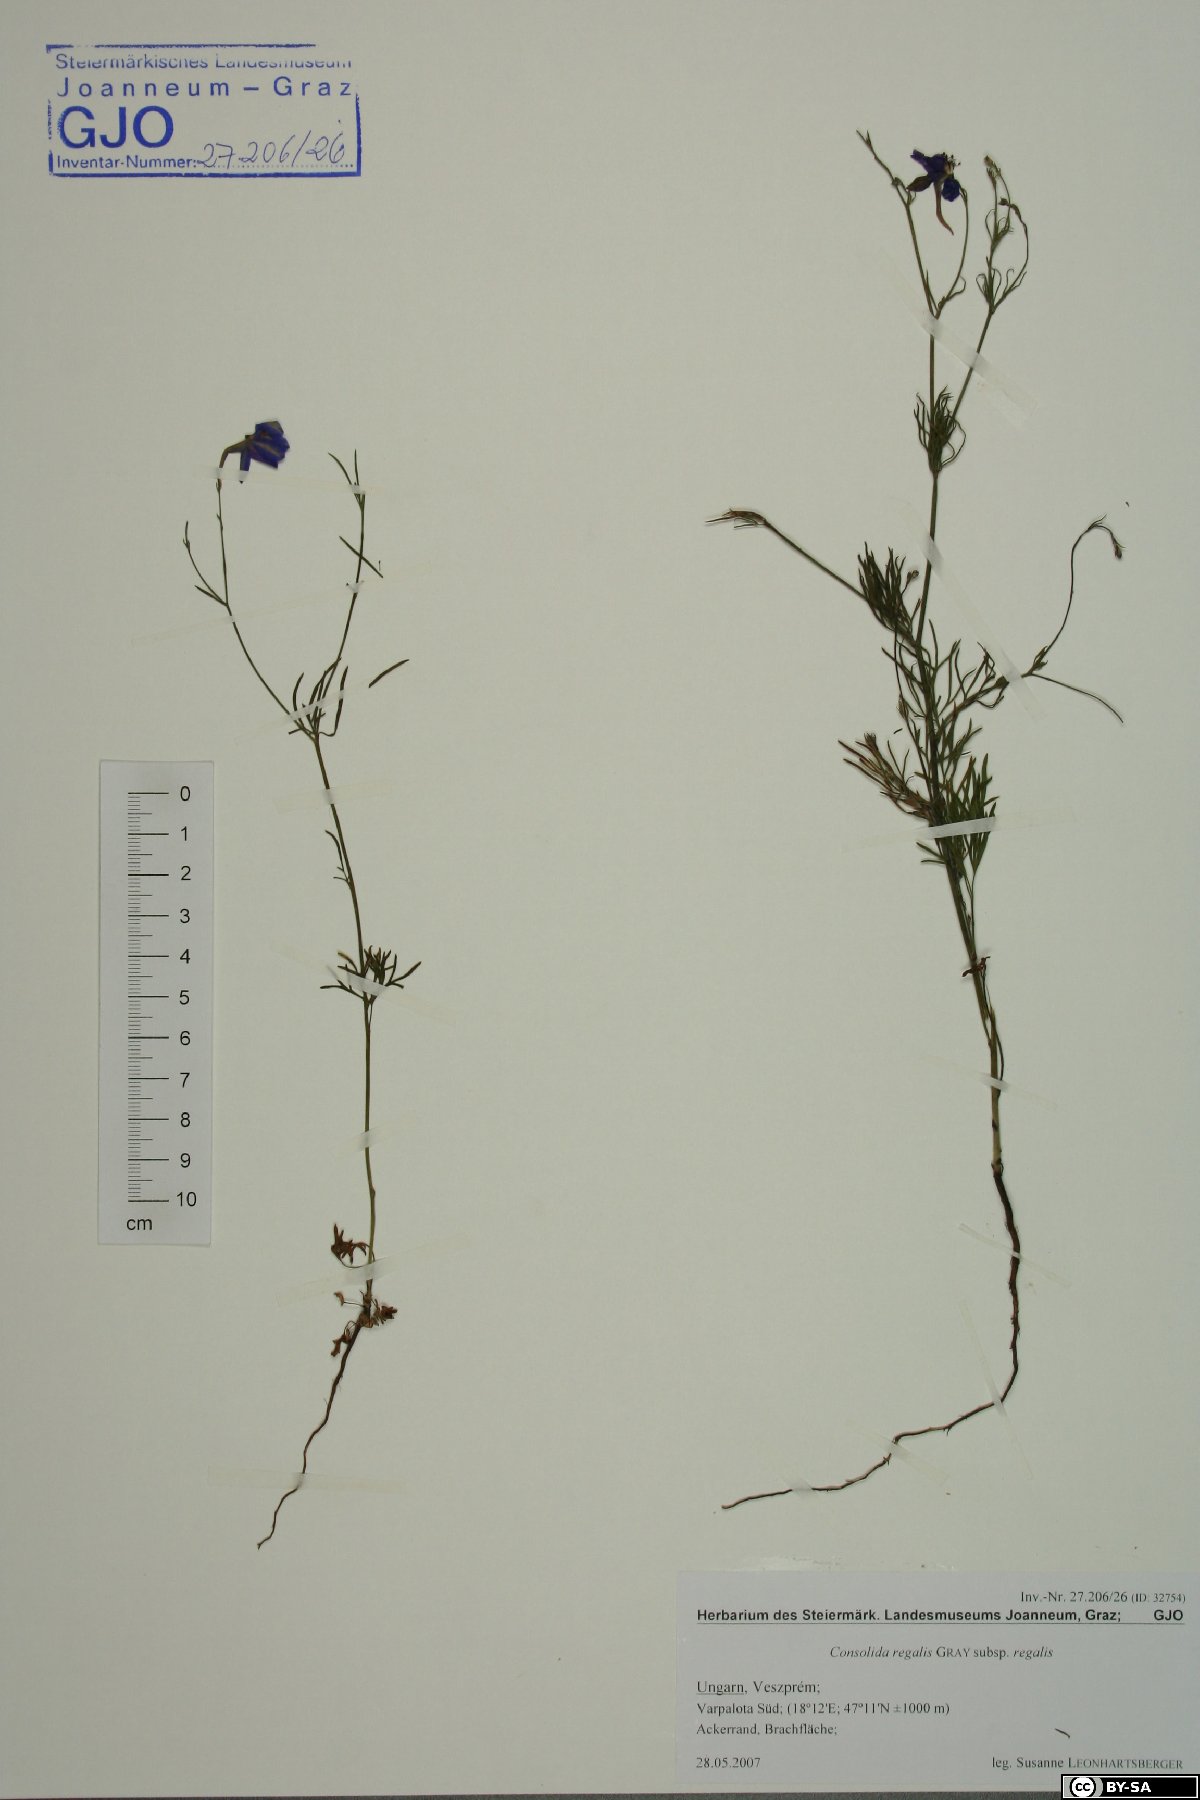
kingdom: Plantae
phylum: Tracheophyta
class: Magnoliopsida
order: Ranunculales
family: Ranunculaceae
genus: Delphinium
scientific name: Delphinium consolida
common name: Branching larkspur
